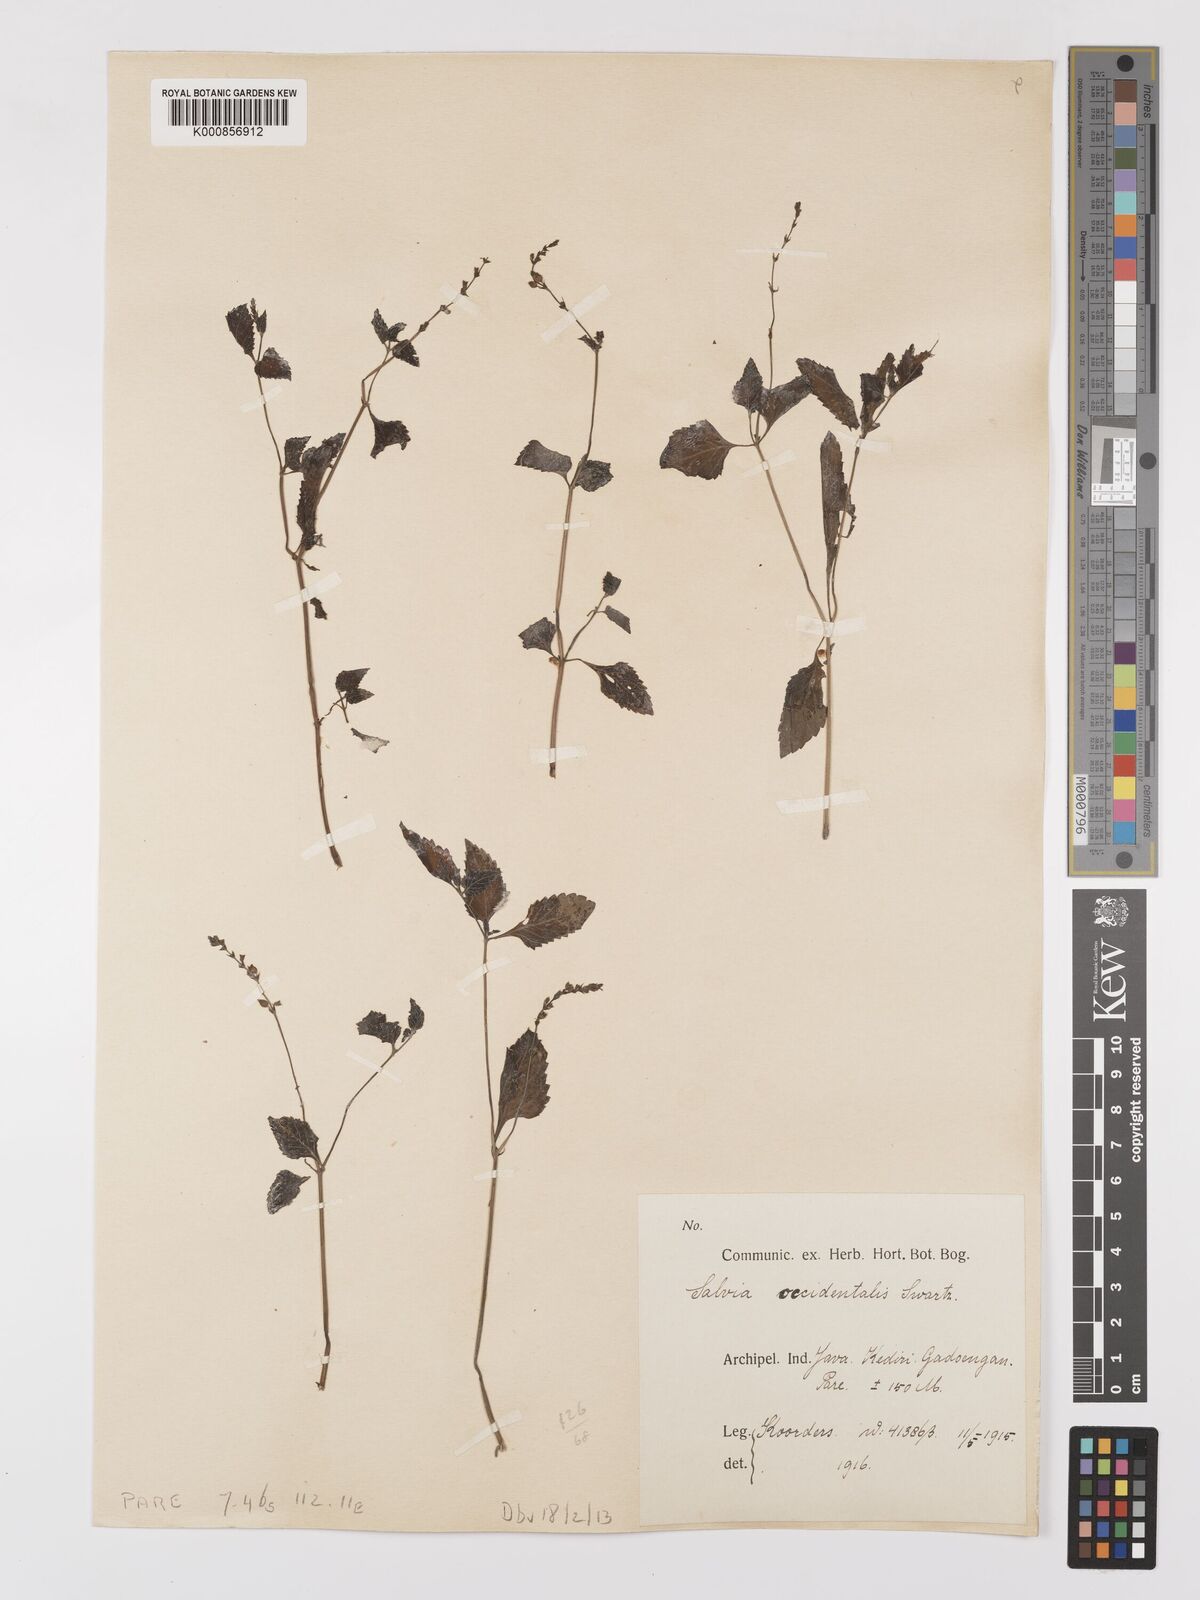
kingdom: Plantae
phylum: Tracheophyta
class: Magnoliopsida
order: Lamiales
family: Lamiaceae
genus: Salvia
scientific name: Salvia
